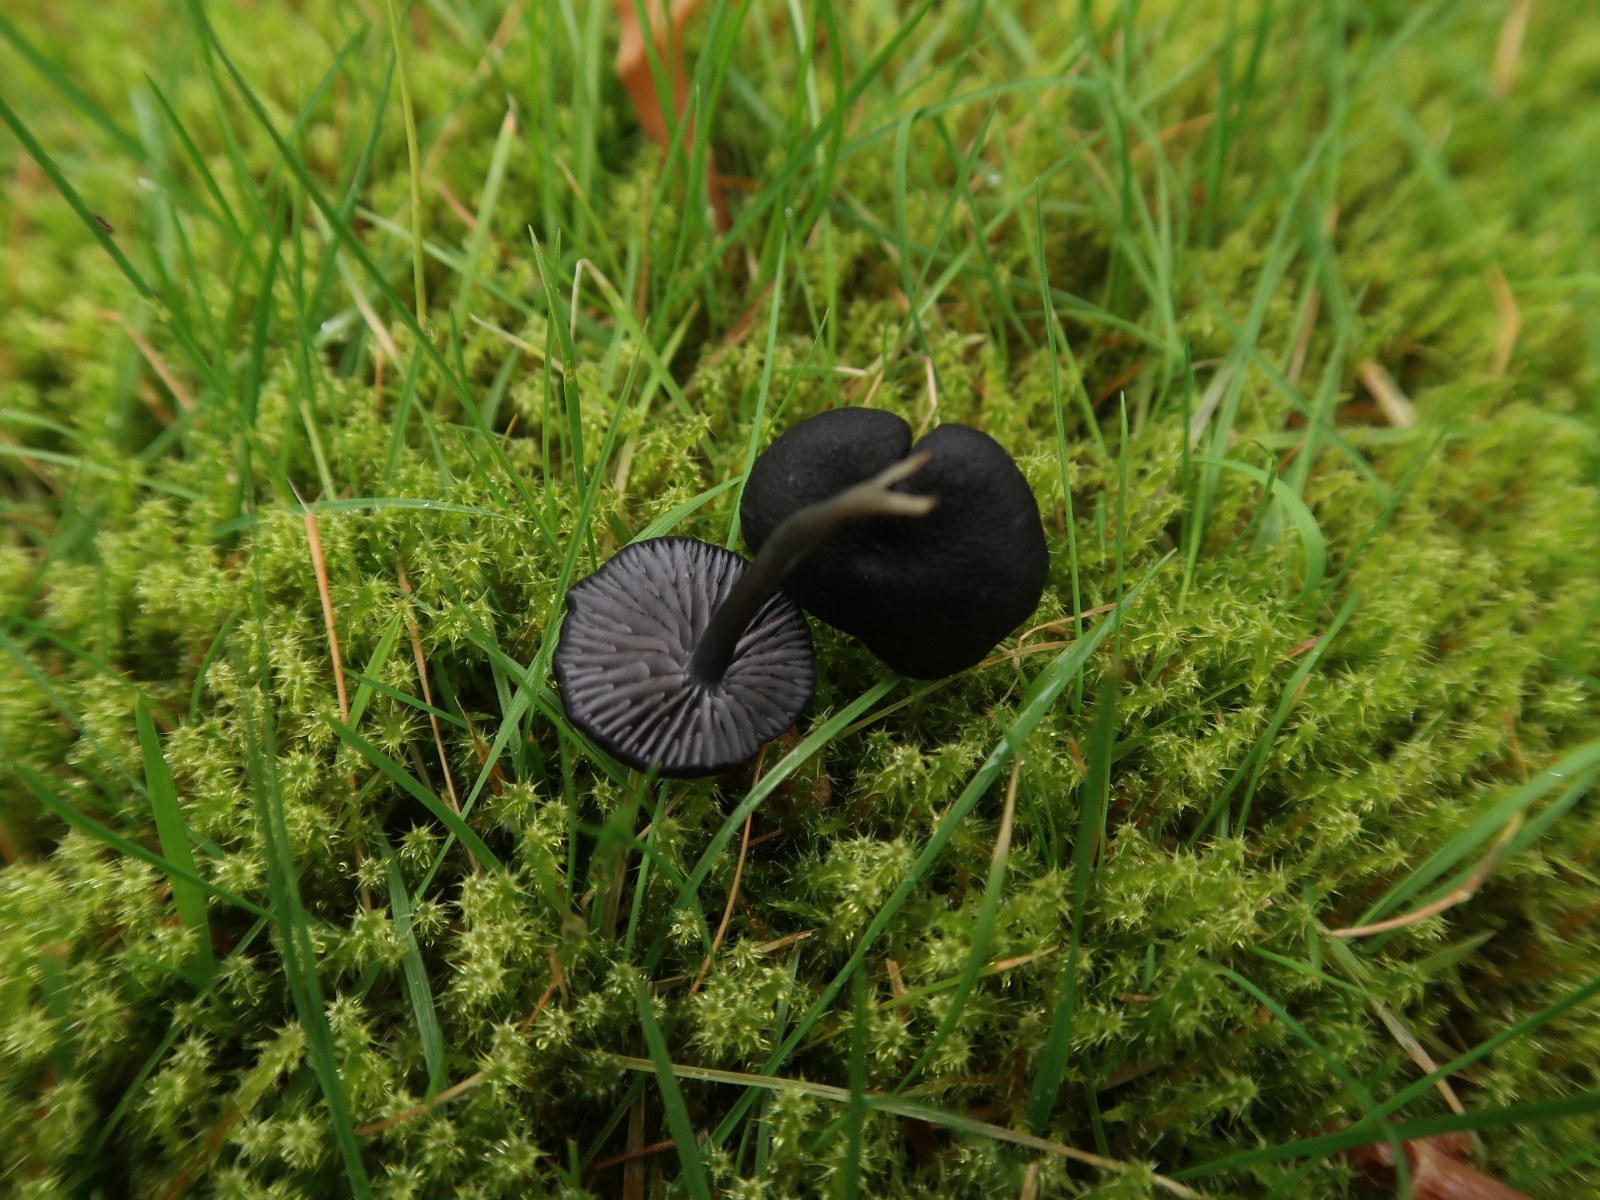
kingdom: Fungi
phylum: Basidiomycota
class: Agaricomycetes
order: Agaricales
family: Entolomataceae
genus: Entoloma
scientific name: Entoloma
